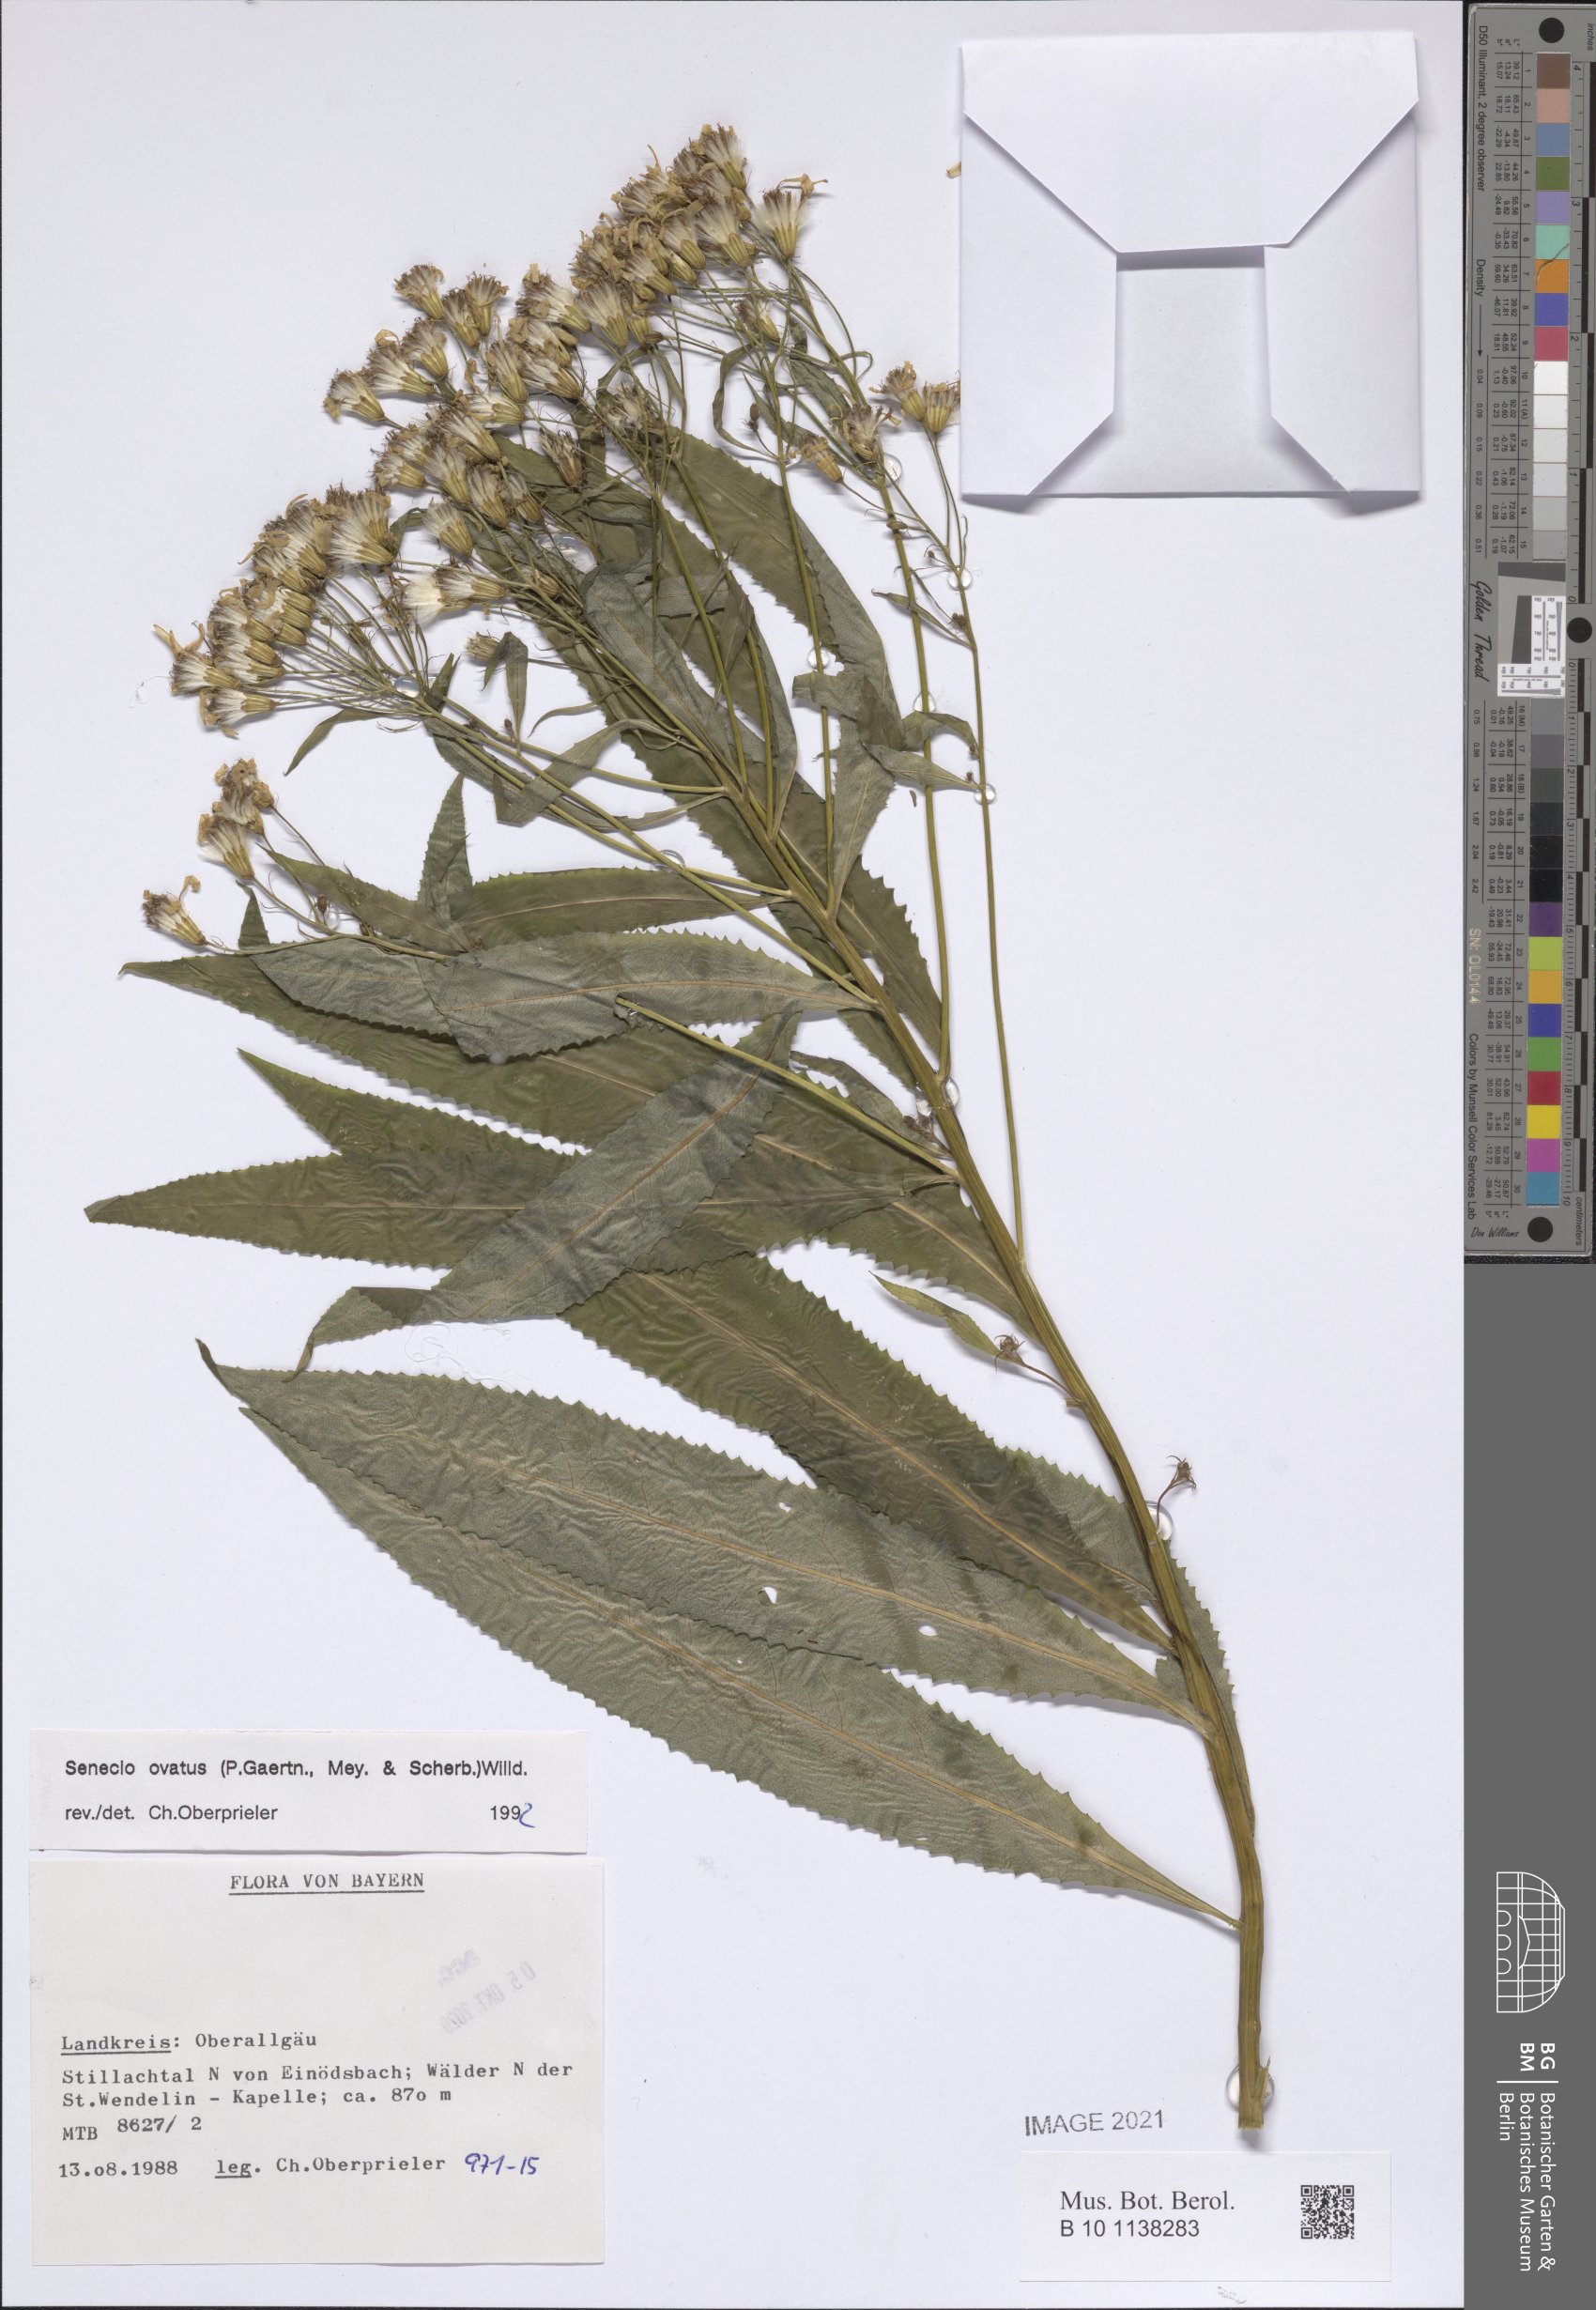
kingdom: Plantae
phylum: Tracheophyta
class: Magnoliopsida
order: Asterales
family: Asteraceae
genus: Senecio
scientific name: Senecio ovatus
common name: Wood ragwort
